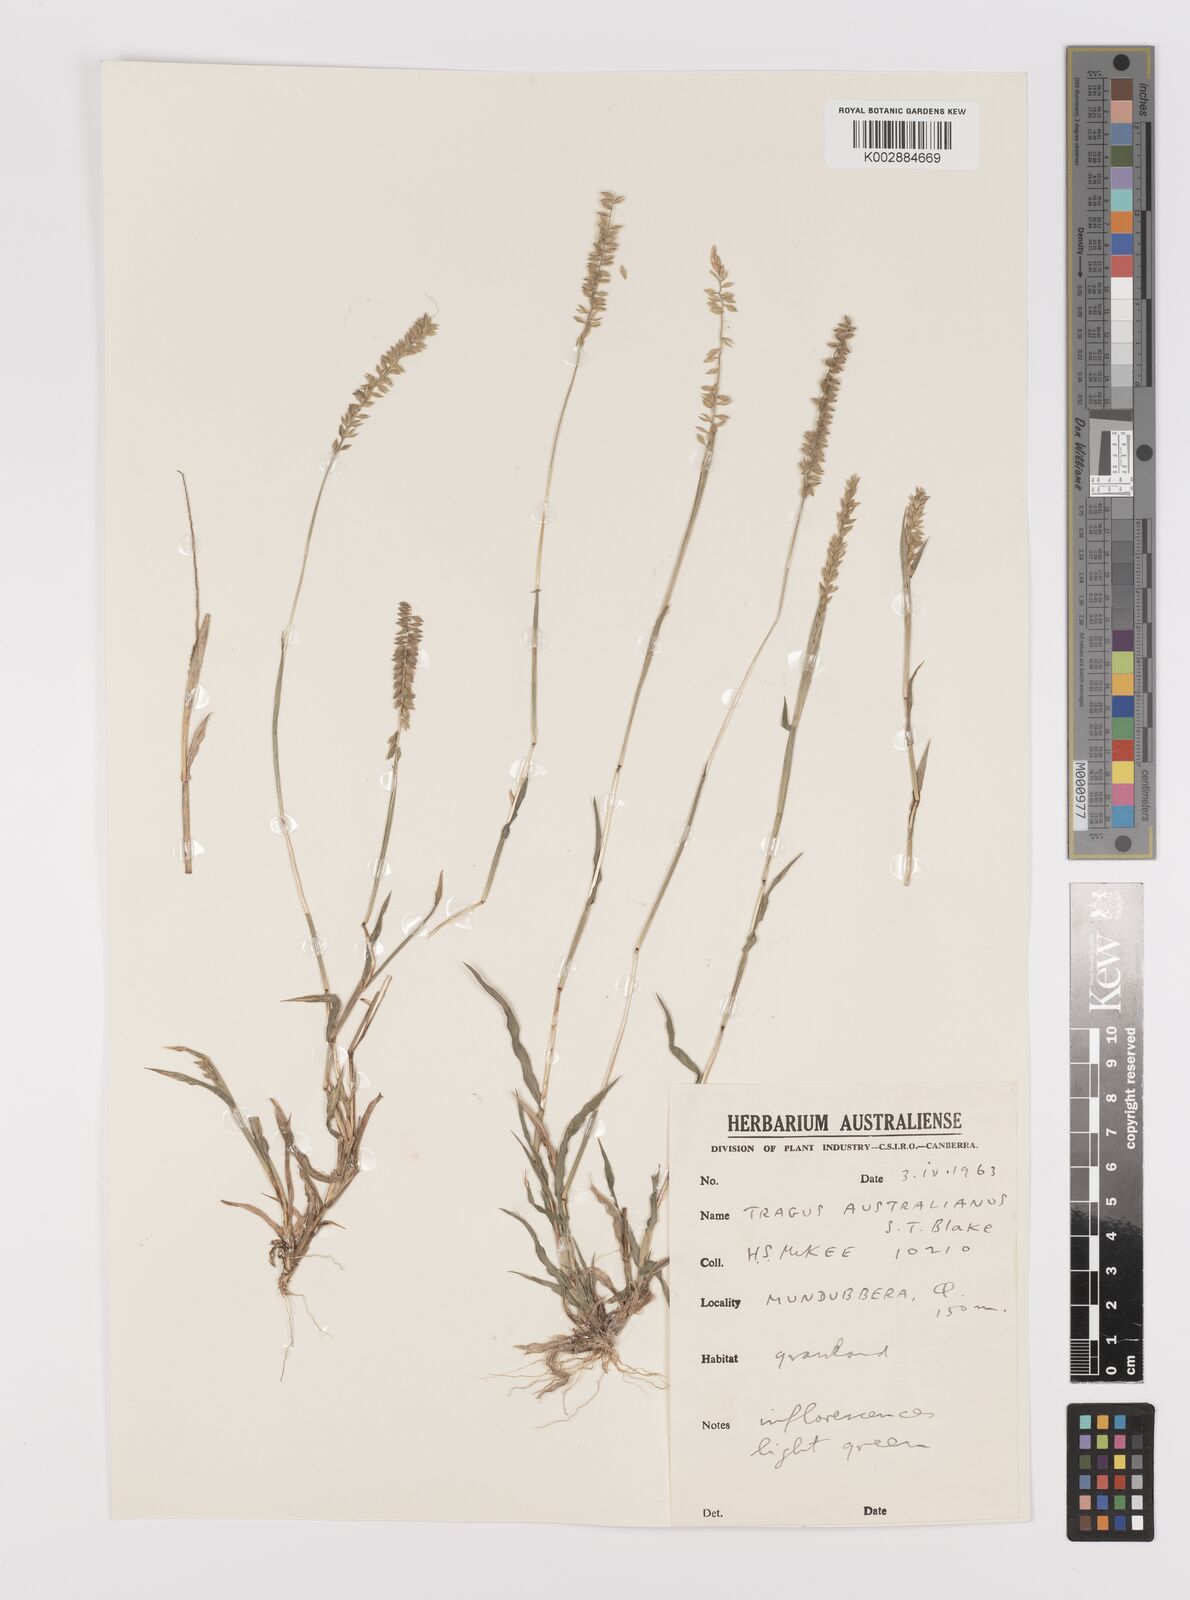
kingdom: Plantae
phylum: Tracheophyta
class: Liliopsida
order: Poales
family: Poaceae
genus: Tragus
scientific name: Tragus australianus
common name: Australian bur-grass
